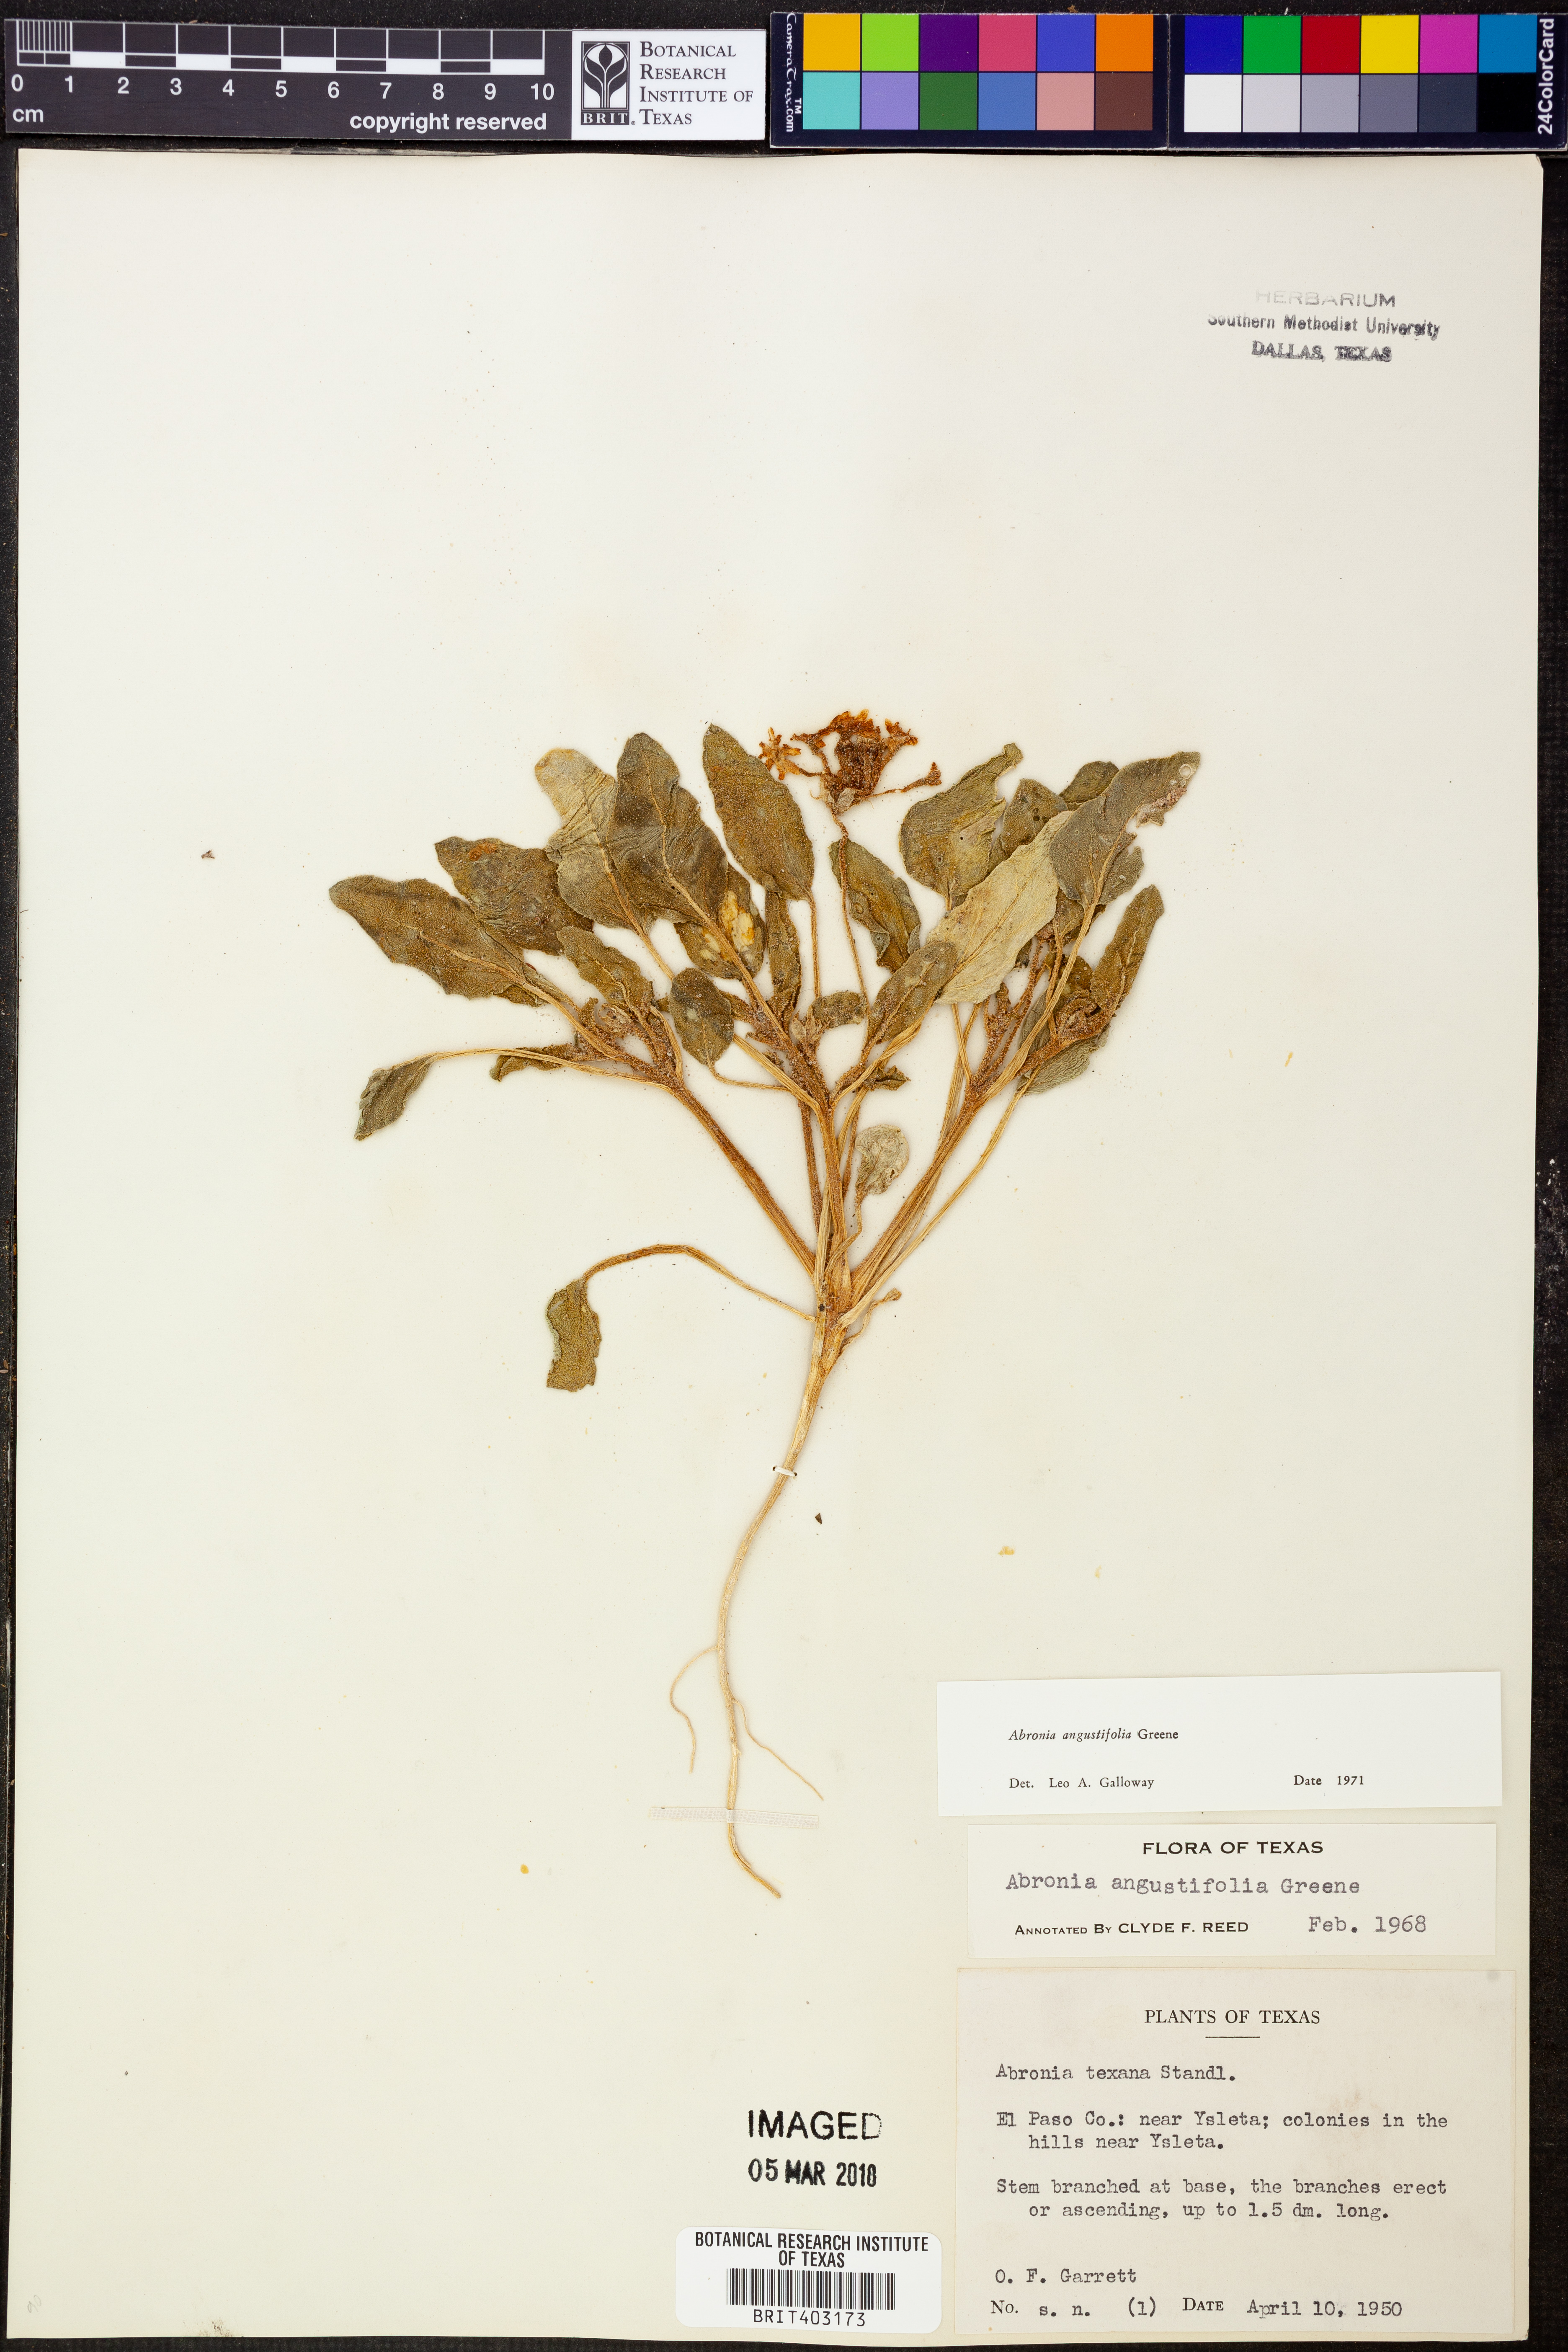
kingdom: Plantae
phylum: Tracheophyta
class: Magnoliopsida
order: Caryophyllales
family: Nyctaginaceae
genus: Abronia
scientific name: Abronia angustifolia
